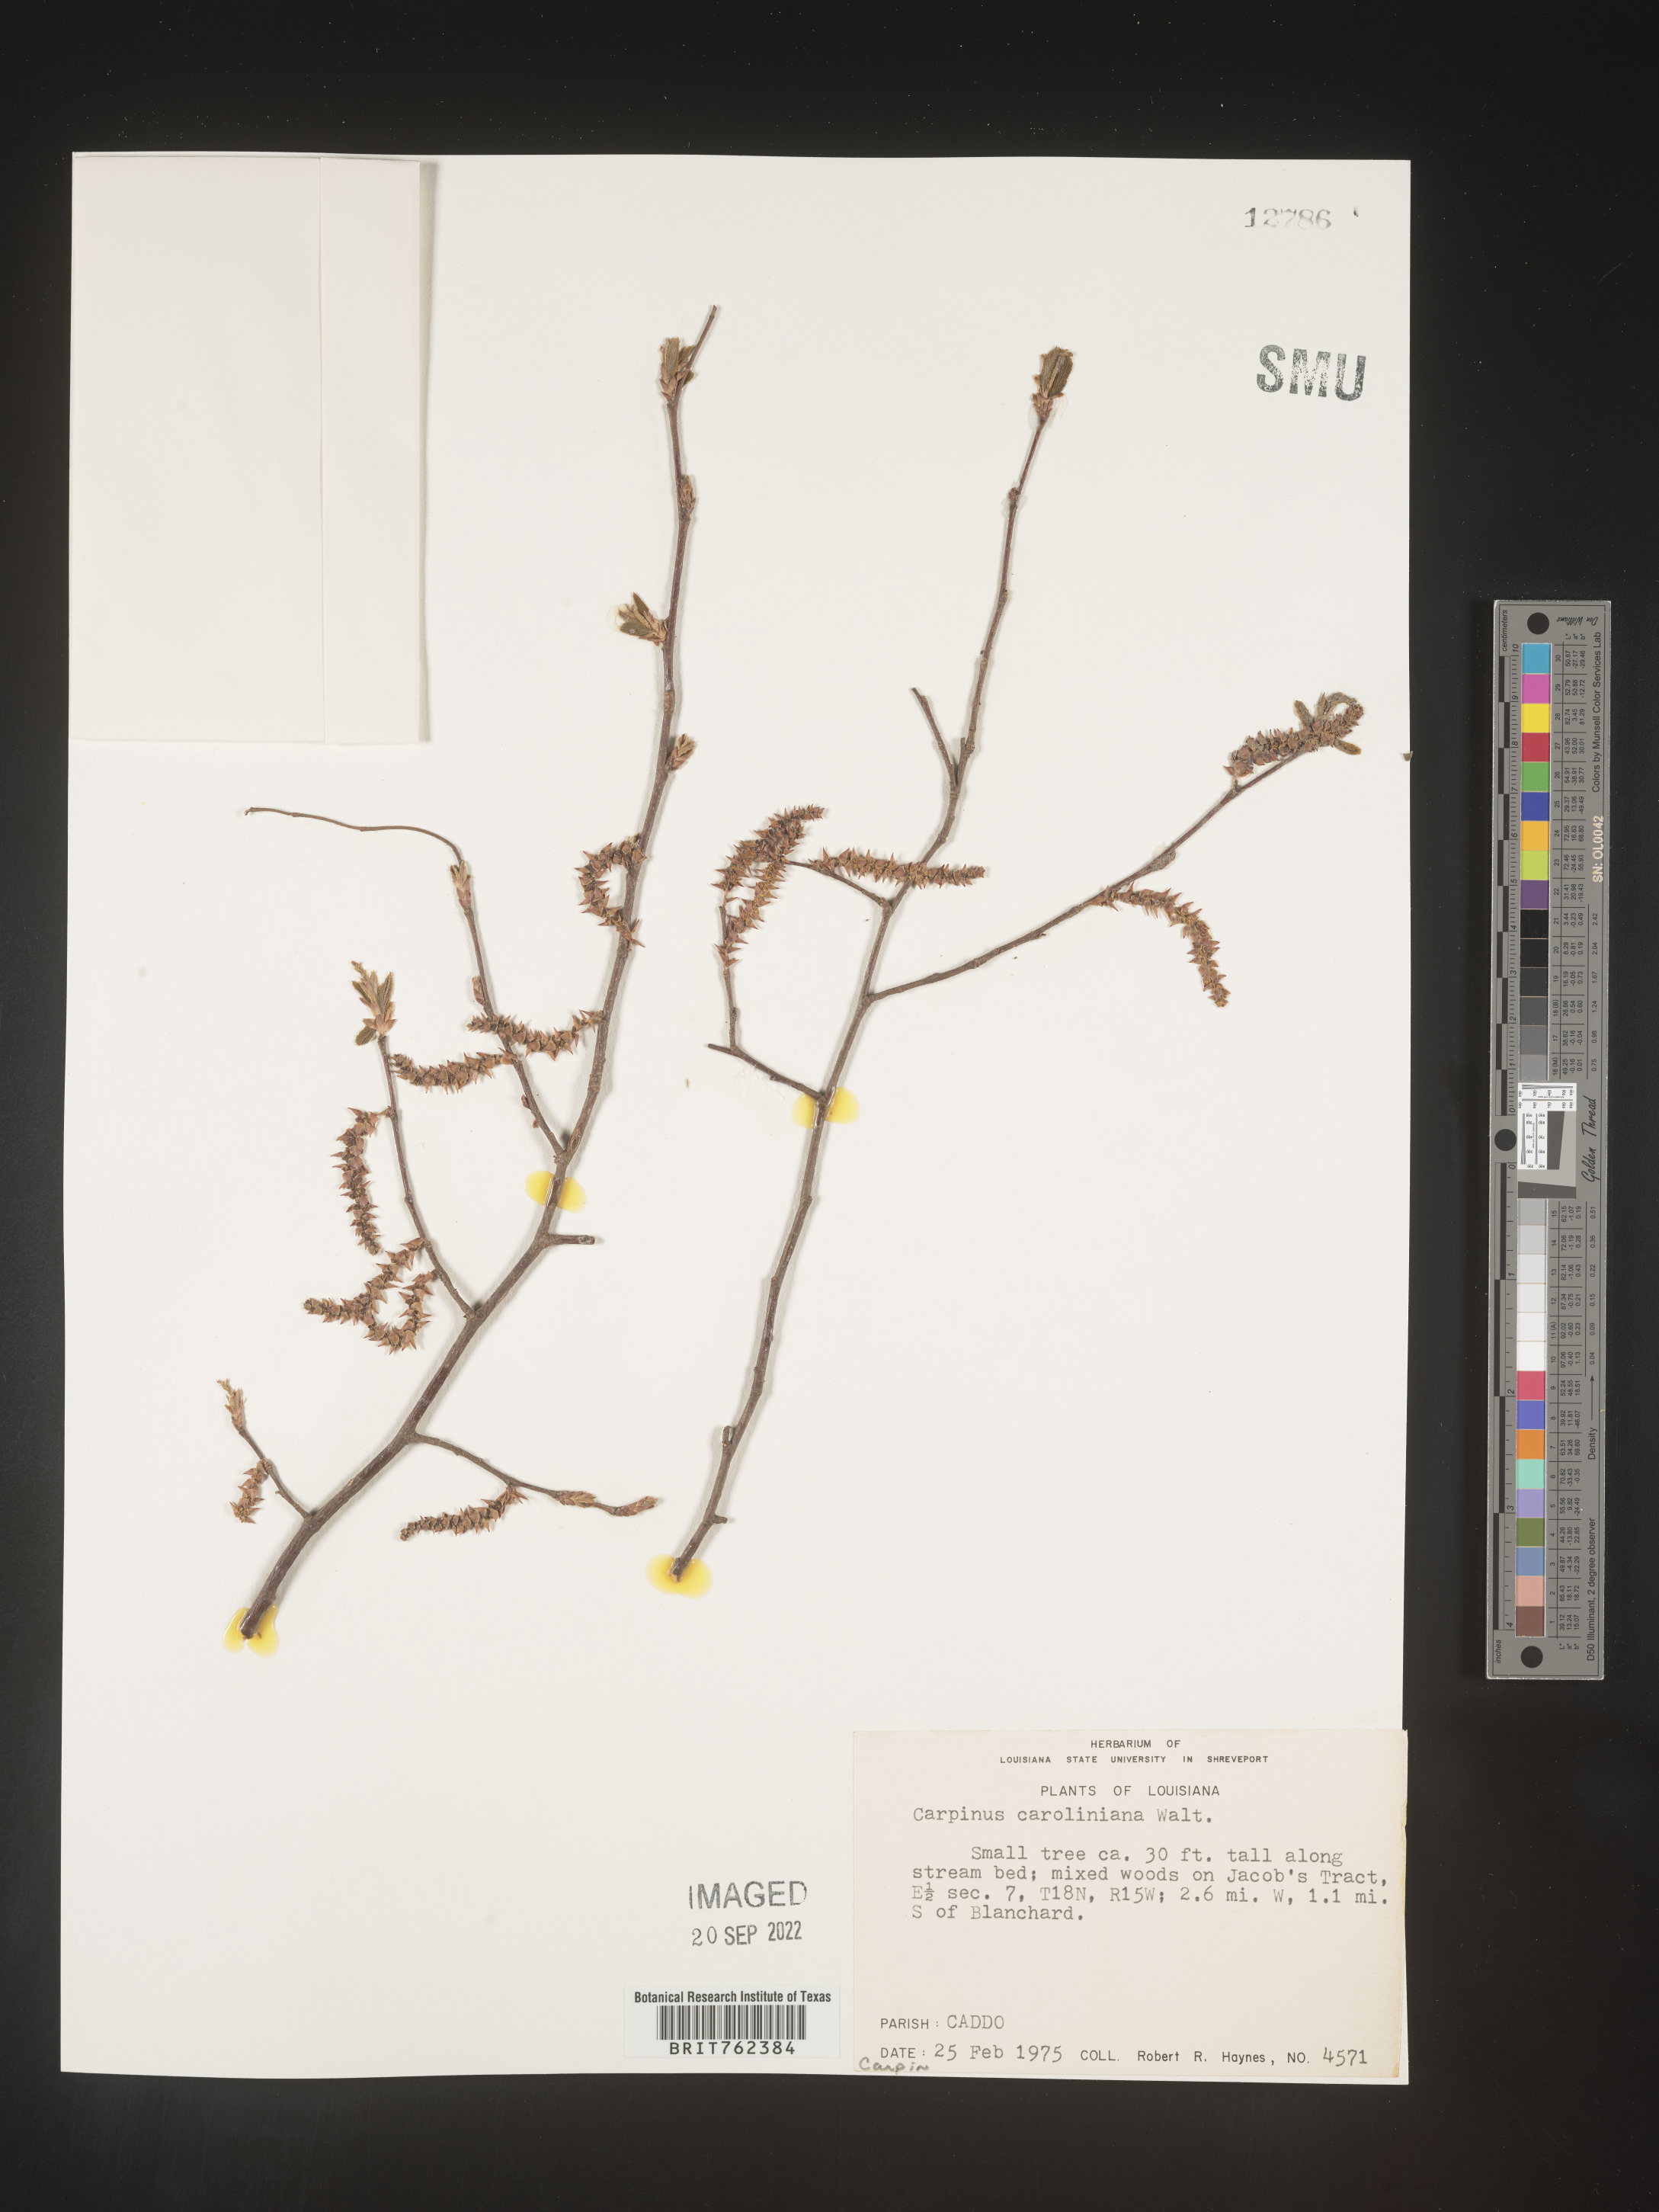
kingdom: Plantae
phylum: Tracheophyta
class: Magnoliopsida
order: Fagales
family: Betulaceae
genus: Carpinus
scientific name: Carpinus caroliniana
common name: American hornbeam
